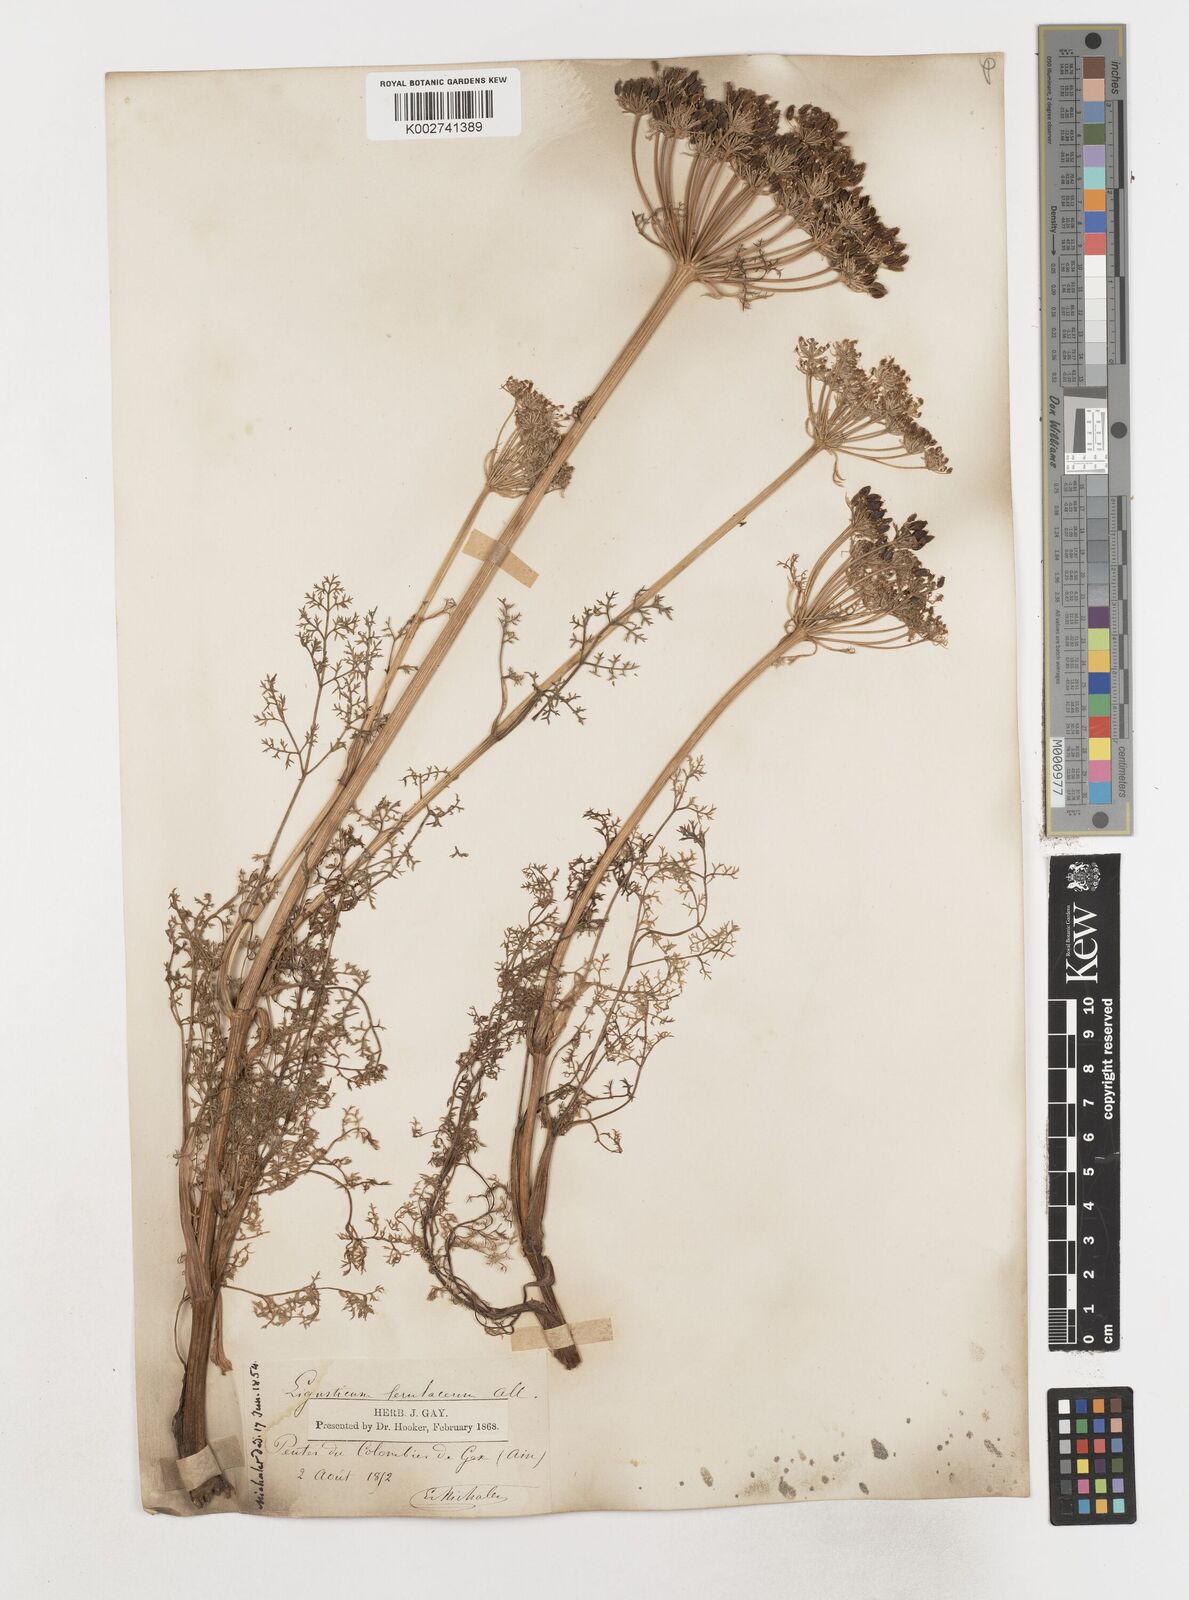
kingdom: Plantae
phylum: Tracheophyta
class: Magnoliopsida
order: Apiales
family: Apiaceae
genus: Coristospermum
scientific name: Coristospermum ferulaceum
